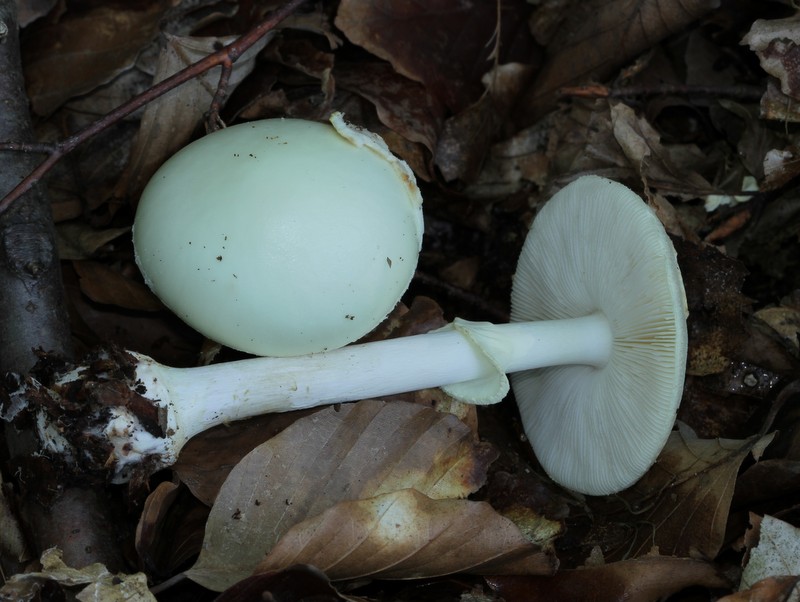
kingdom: Fungi
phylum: Basidiomycota
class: Agaricomycetes
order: Agaricales
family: Amanitaceae
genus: Amanita
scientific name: Amanita citrina
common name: False death-cap
